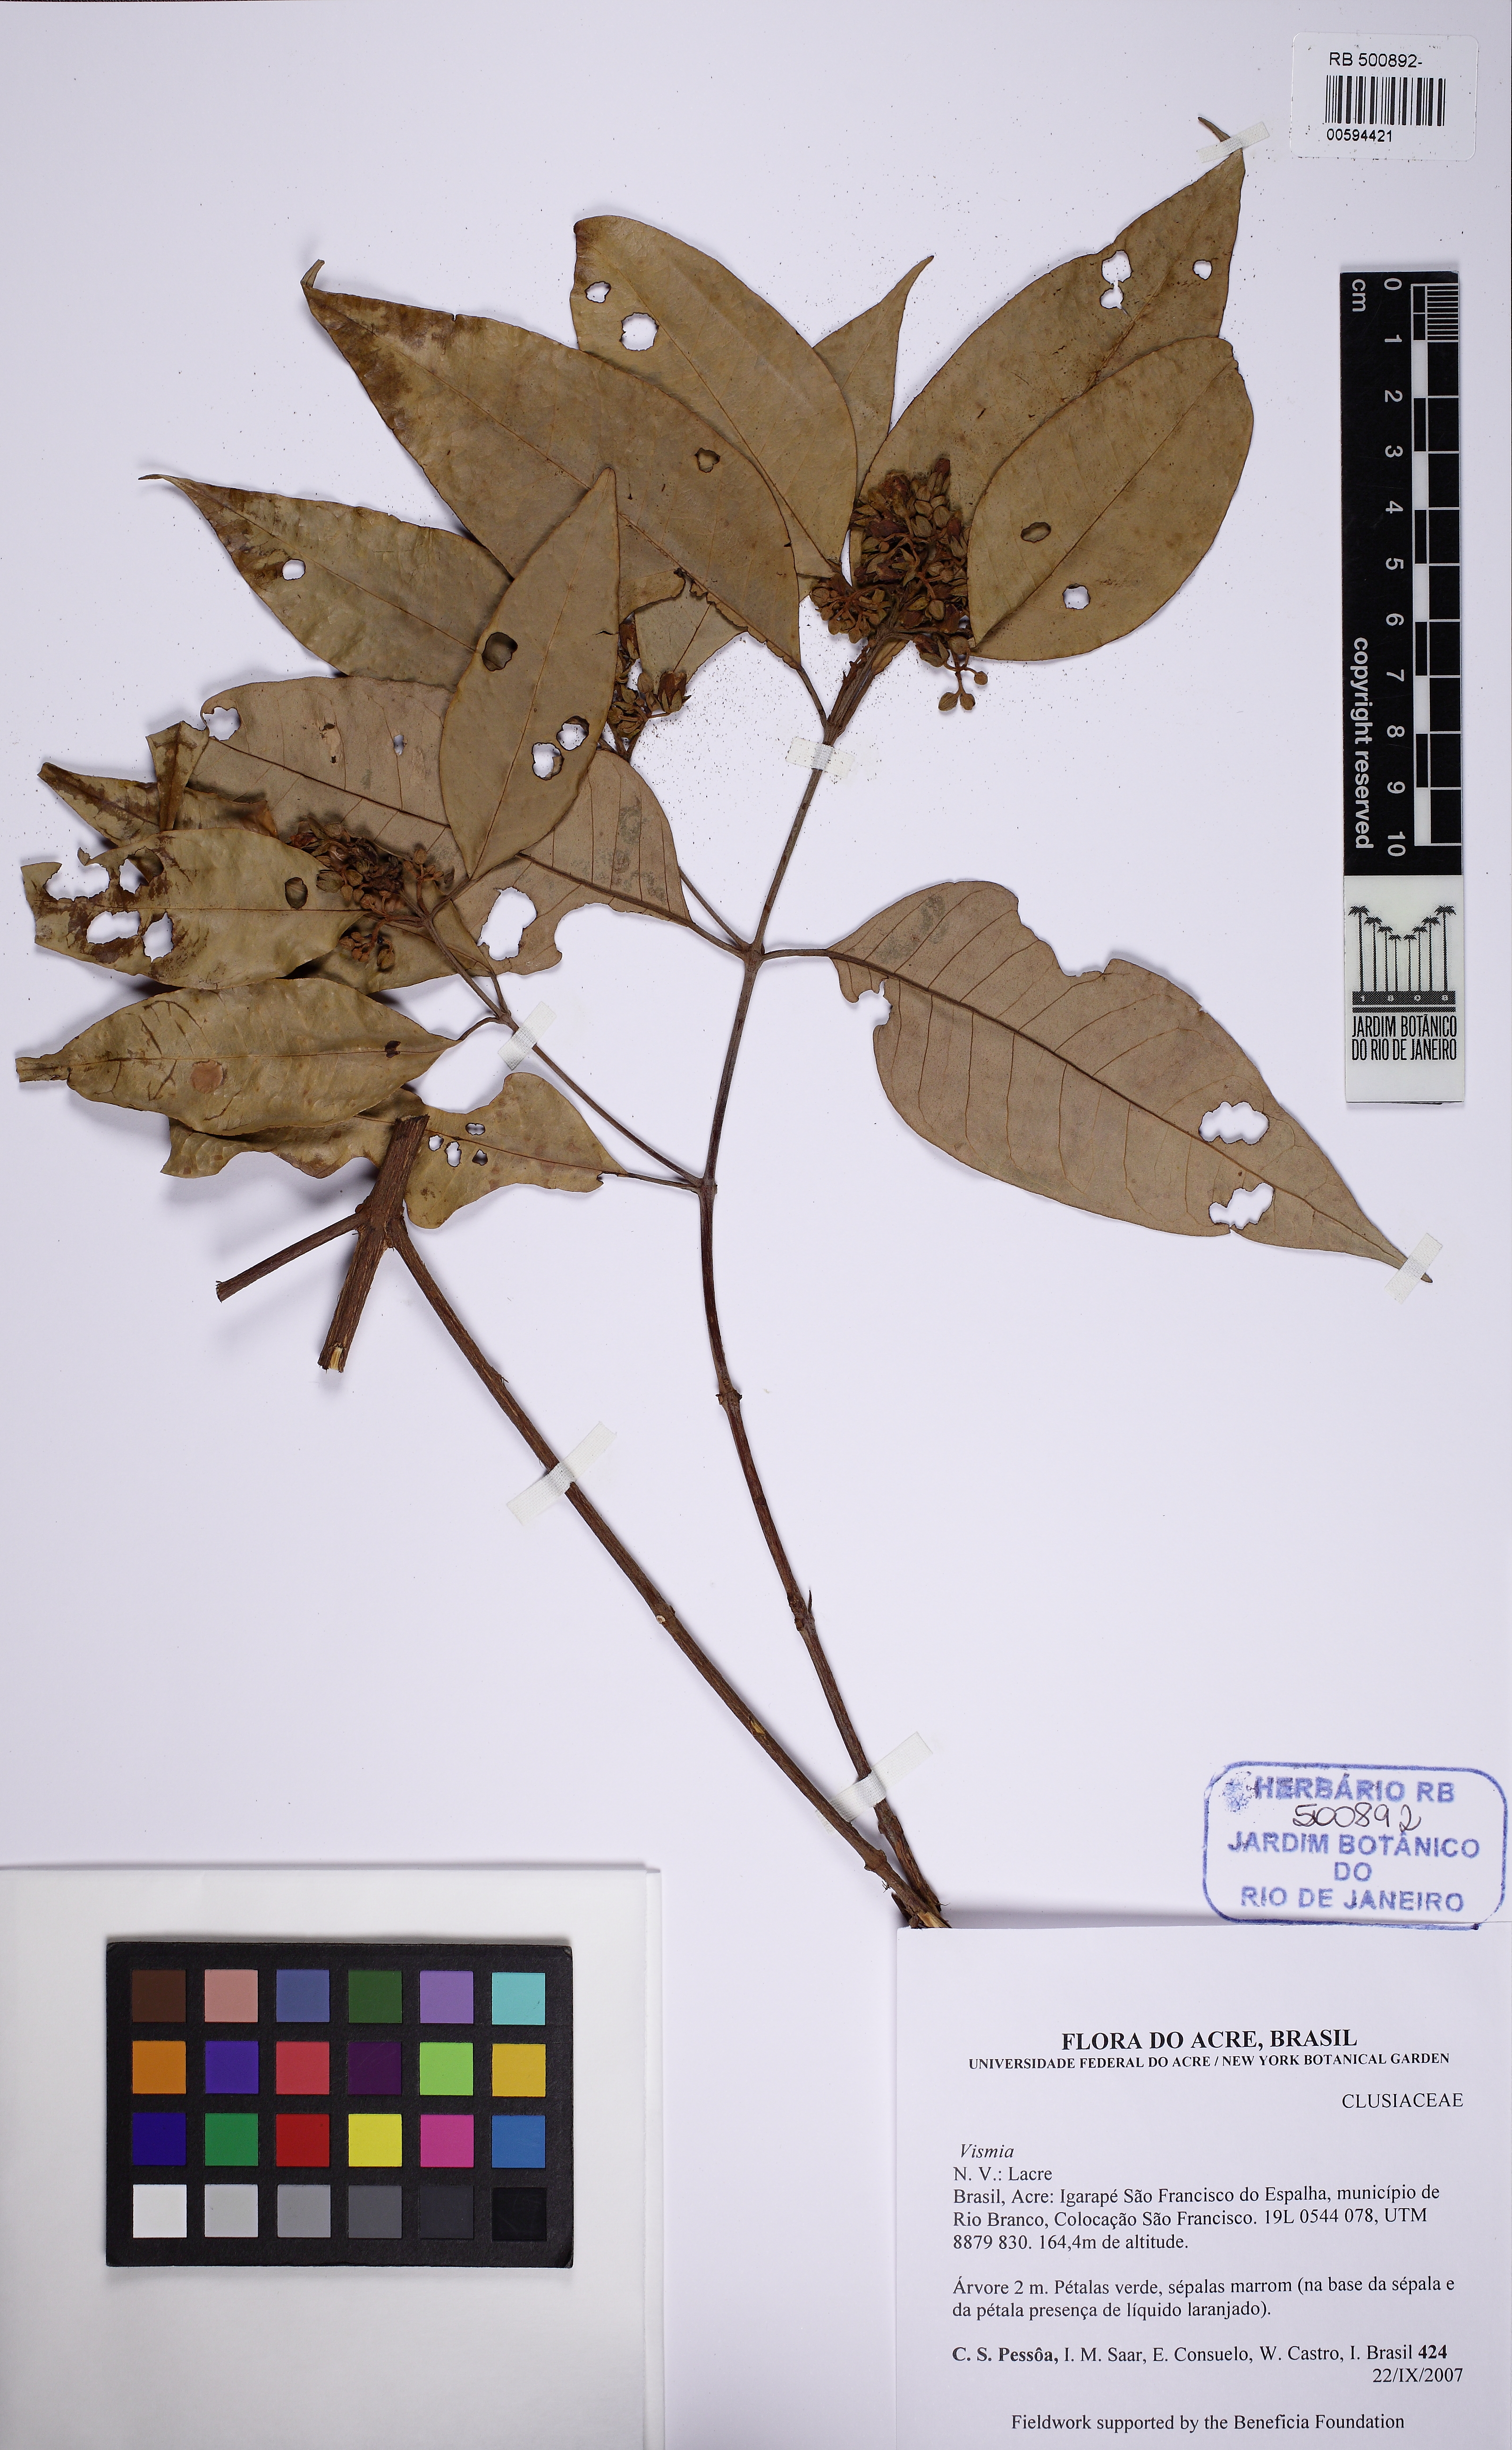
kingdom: Plantae
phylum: Tracheophyta
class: Magnoliopsida
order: Malpighiales
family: Hypericaceae
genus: Vismia
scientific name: Vismia gracilis
